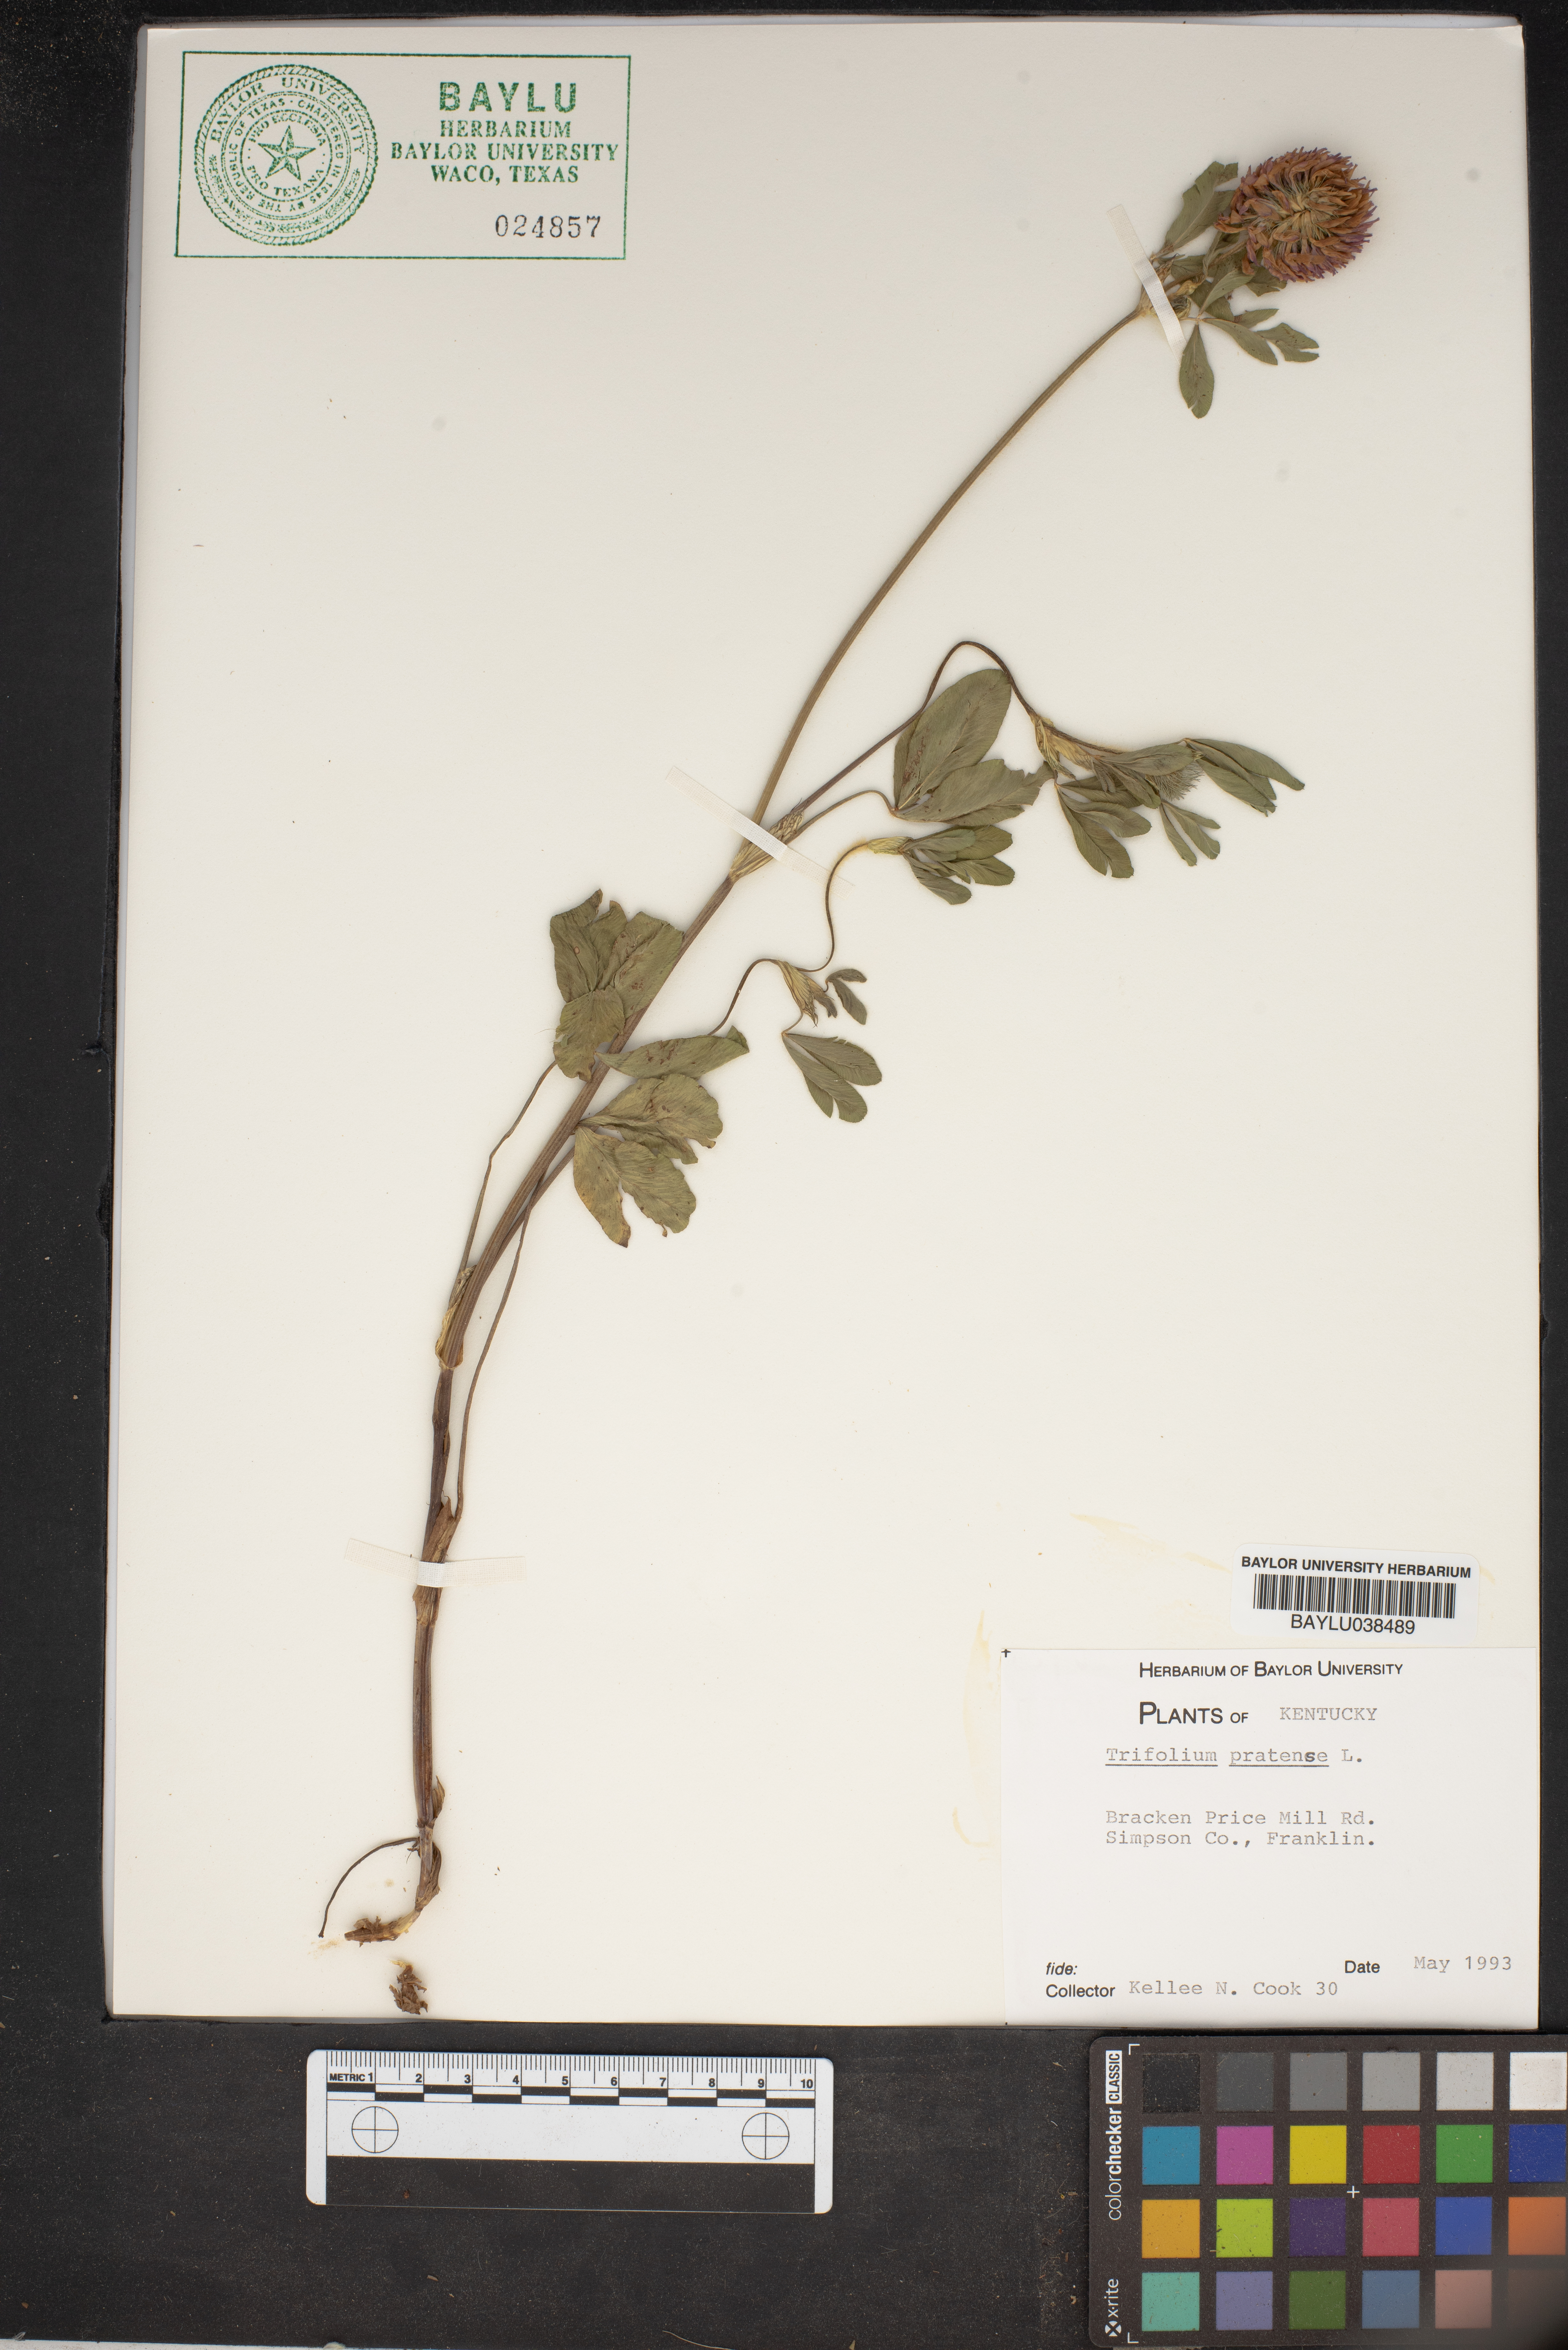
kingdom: Plantae
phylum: Tracheophyta
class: Magnoliopsida
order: Fabales
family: Fabaceae
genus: Trifolium
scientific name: Trifolium pratense
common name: Red clover
